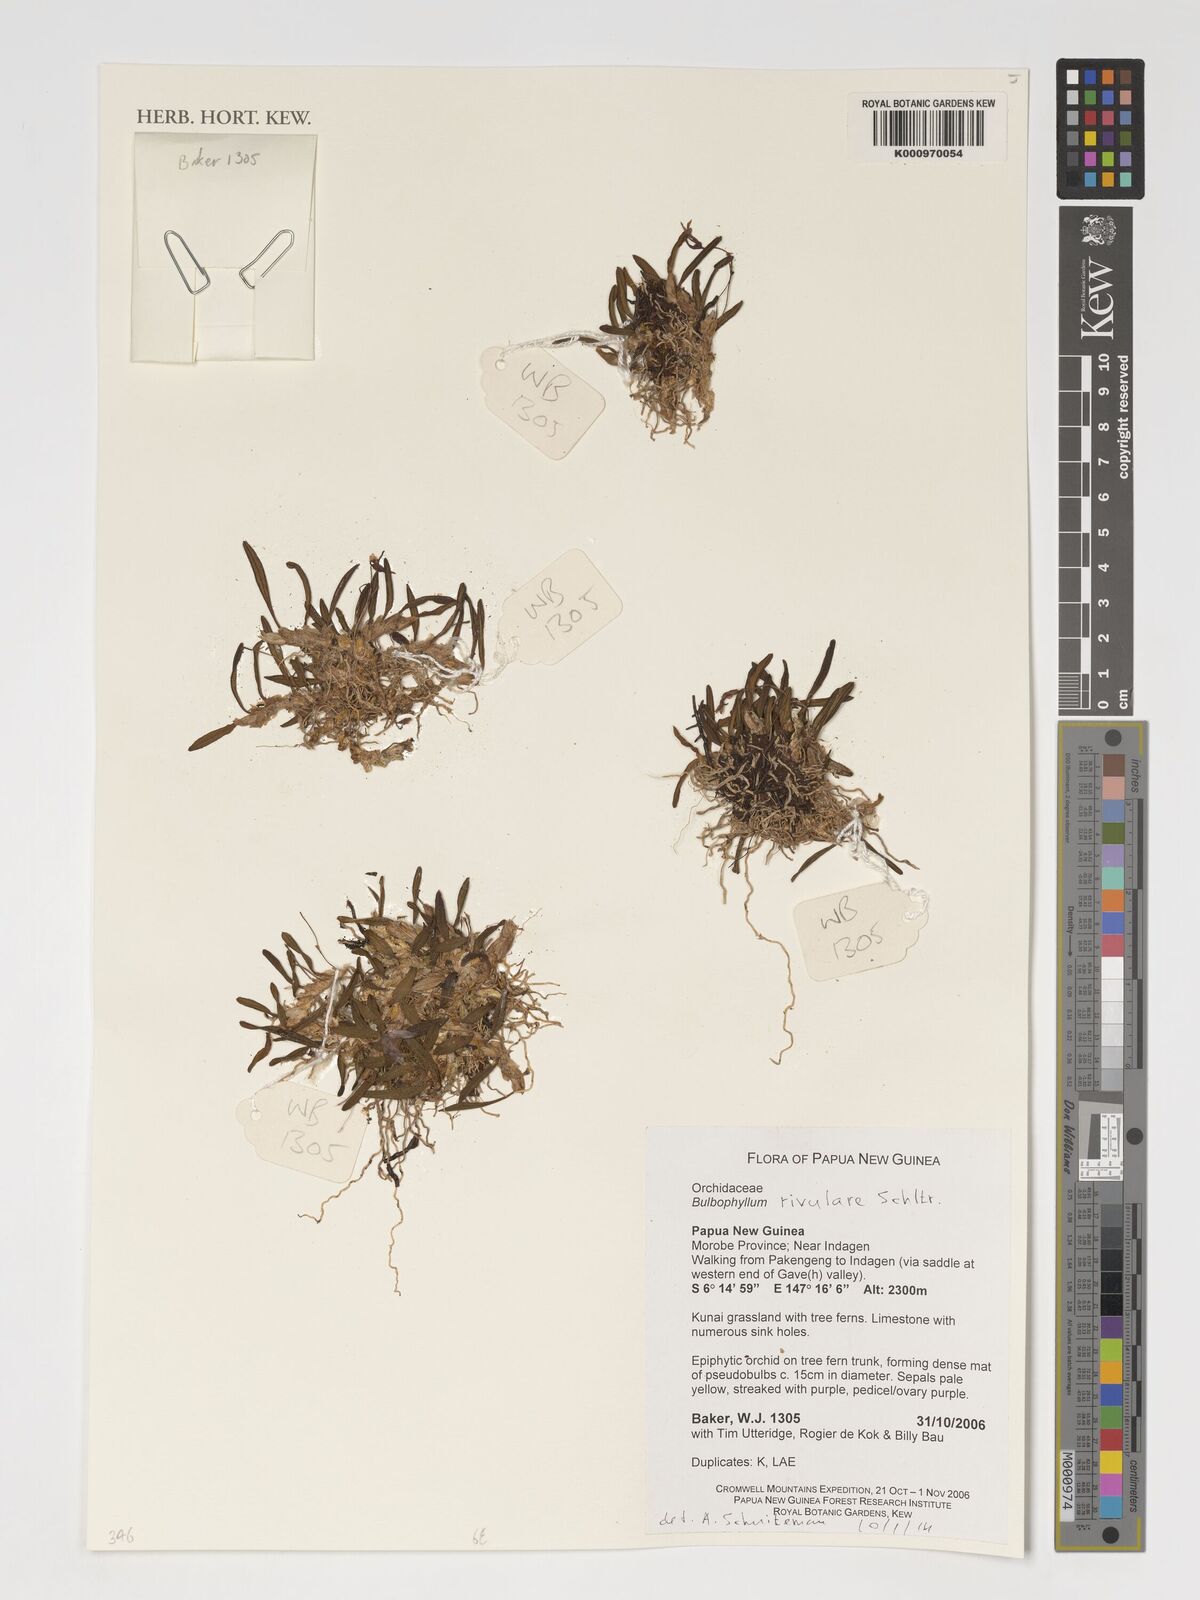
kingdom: Plantae
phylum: Tracheophyta
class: Liliopsida
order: Asparagales
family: Orchidaceae
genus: Bulbophyllum
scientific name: Bulbophyllum rivulare
